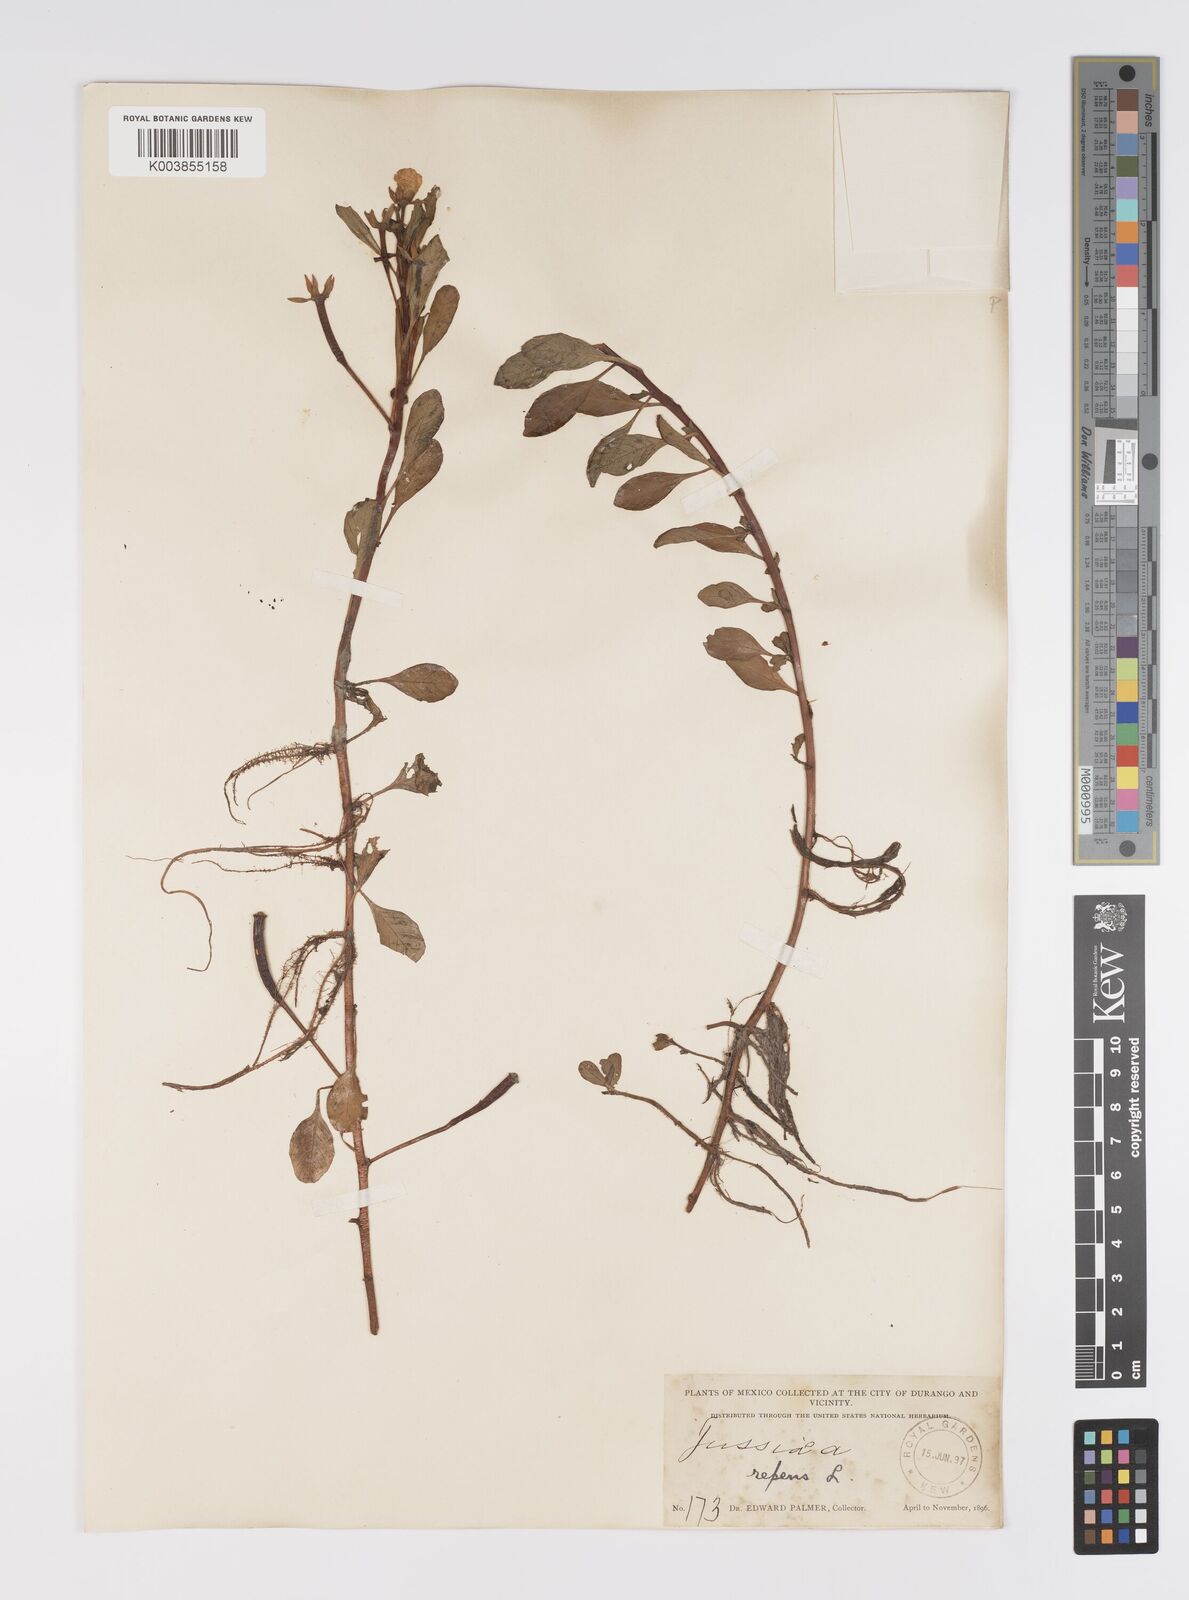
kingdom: Plantae
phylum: Tracheophyta
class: Magnoliopsida
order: Myrtales
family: Onagraceae
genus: Ludwigia
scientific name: Ludwigia adscendens
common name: Creeping water primrose
